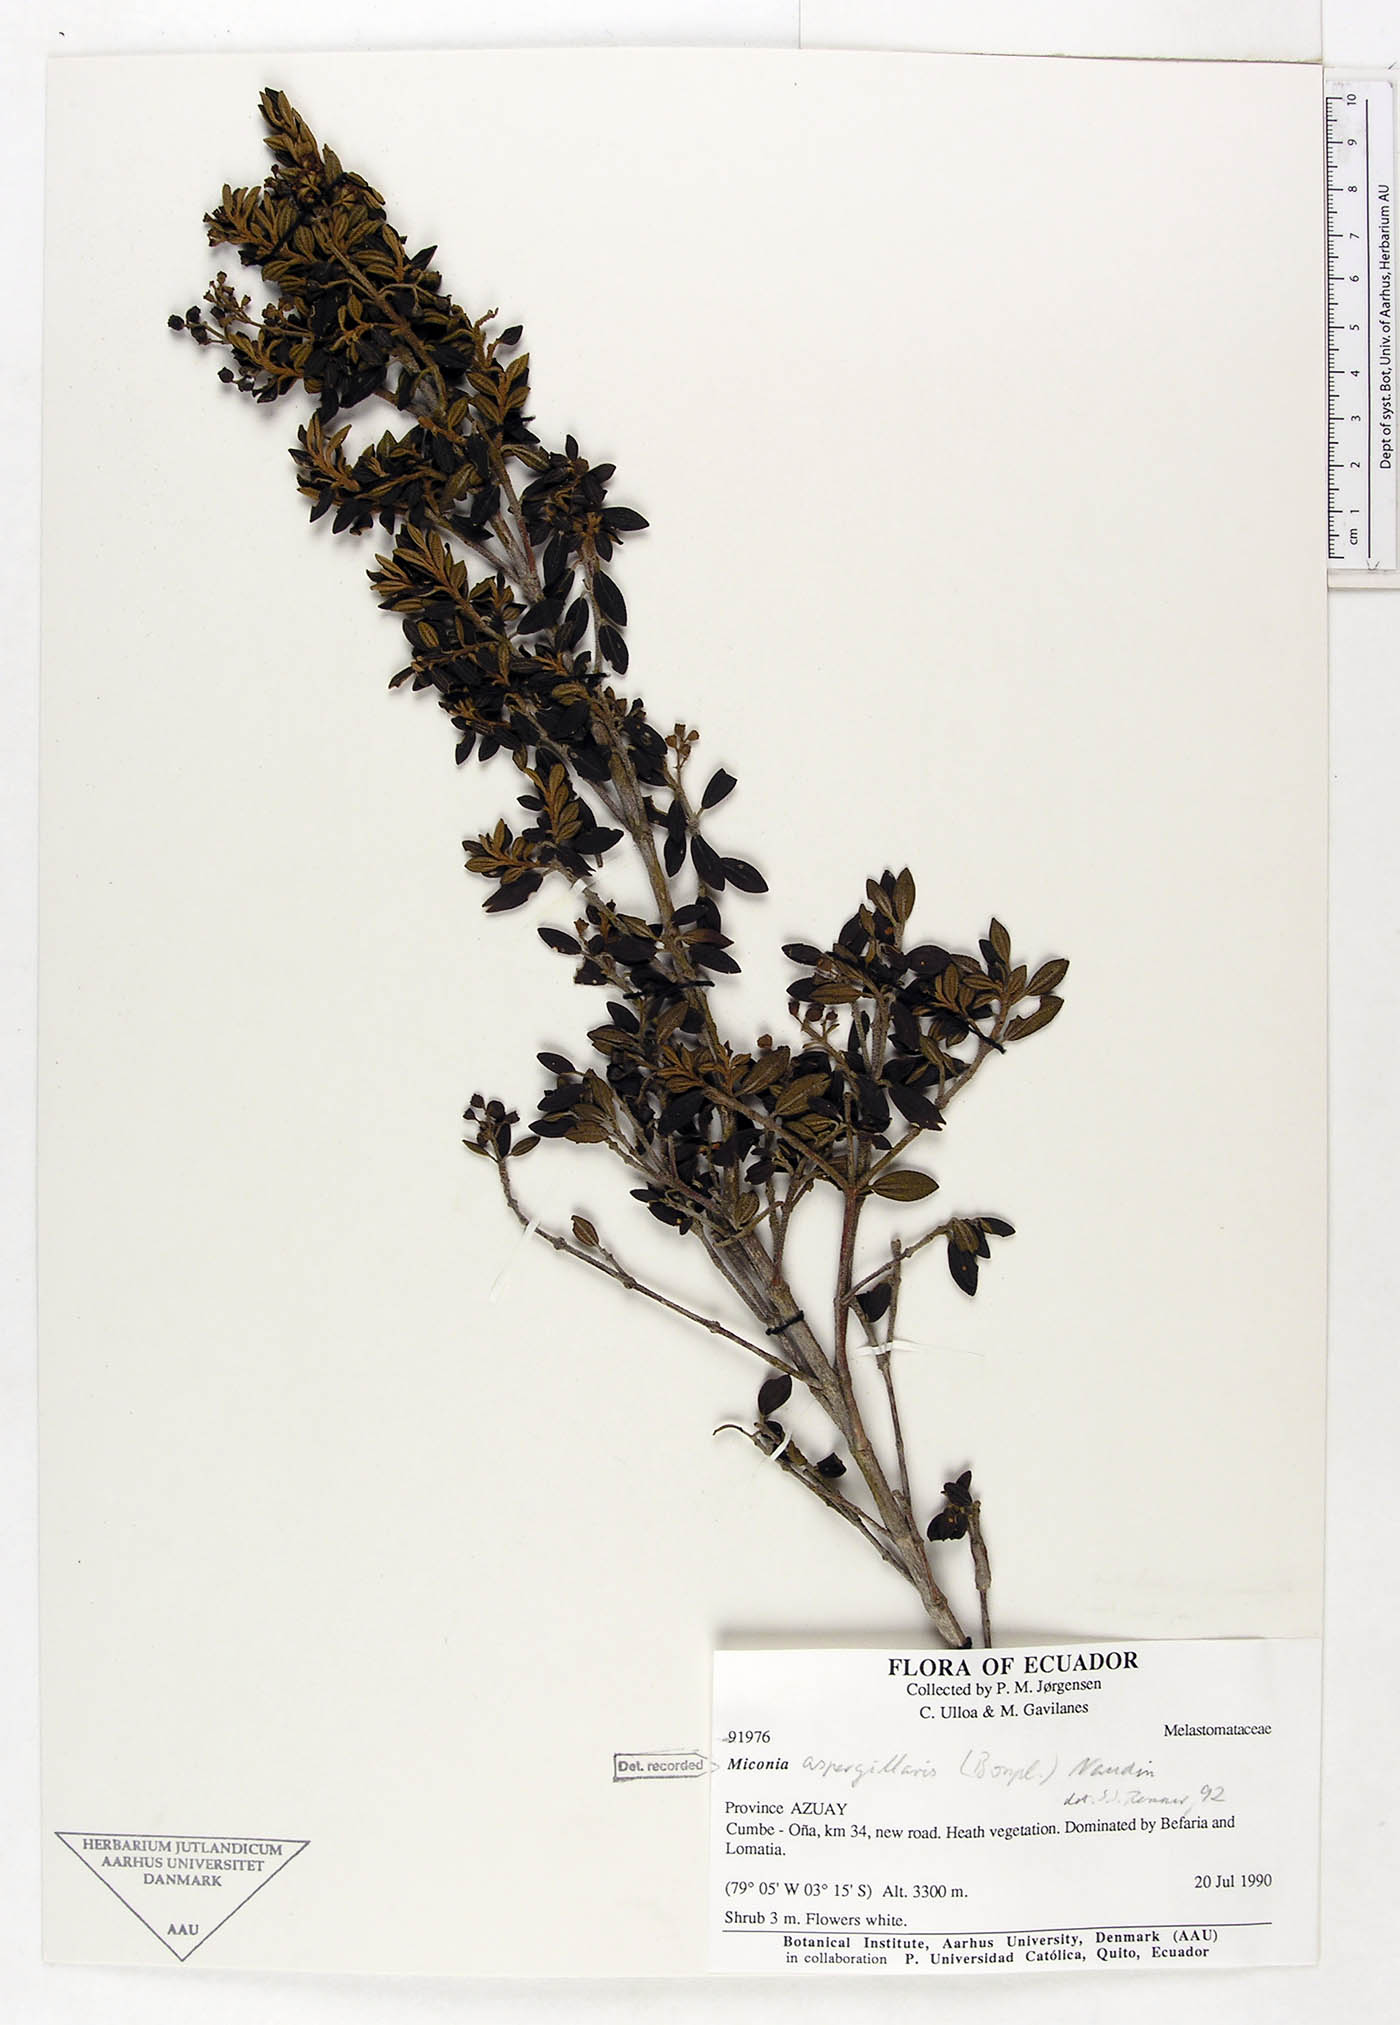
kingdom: Plantae
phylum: Tracheophyta
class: Magnoliopsida
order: Myrtales
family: Melastomataceae
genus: Miconia
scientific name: Miconia aspergillaris
